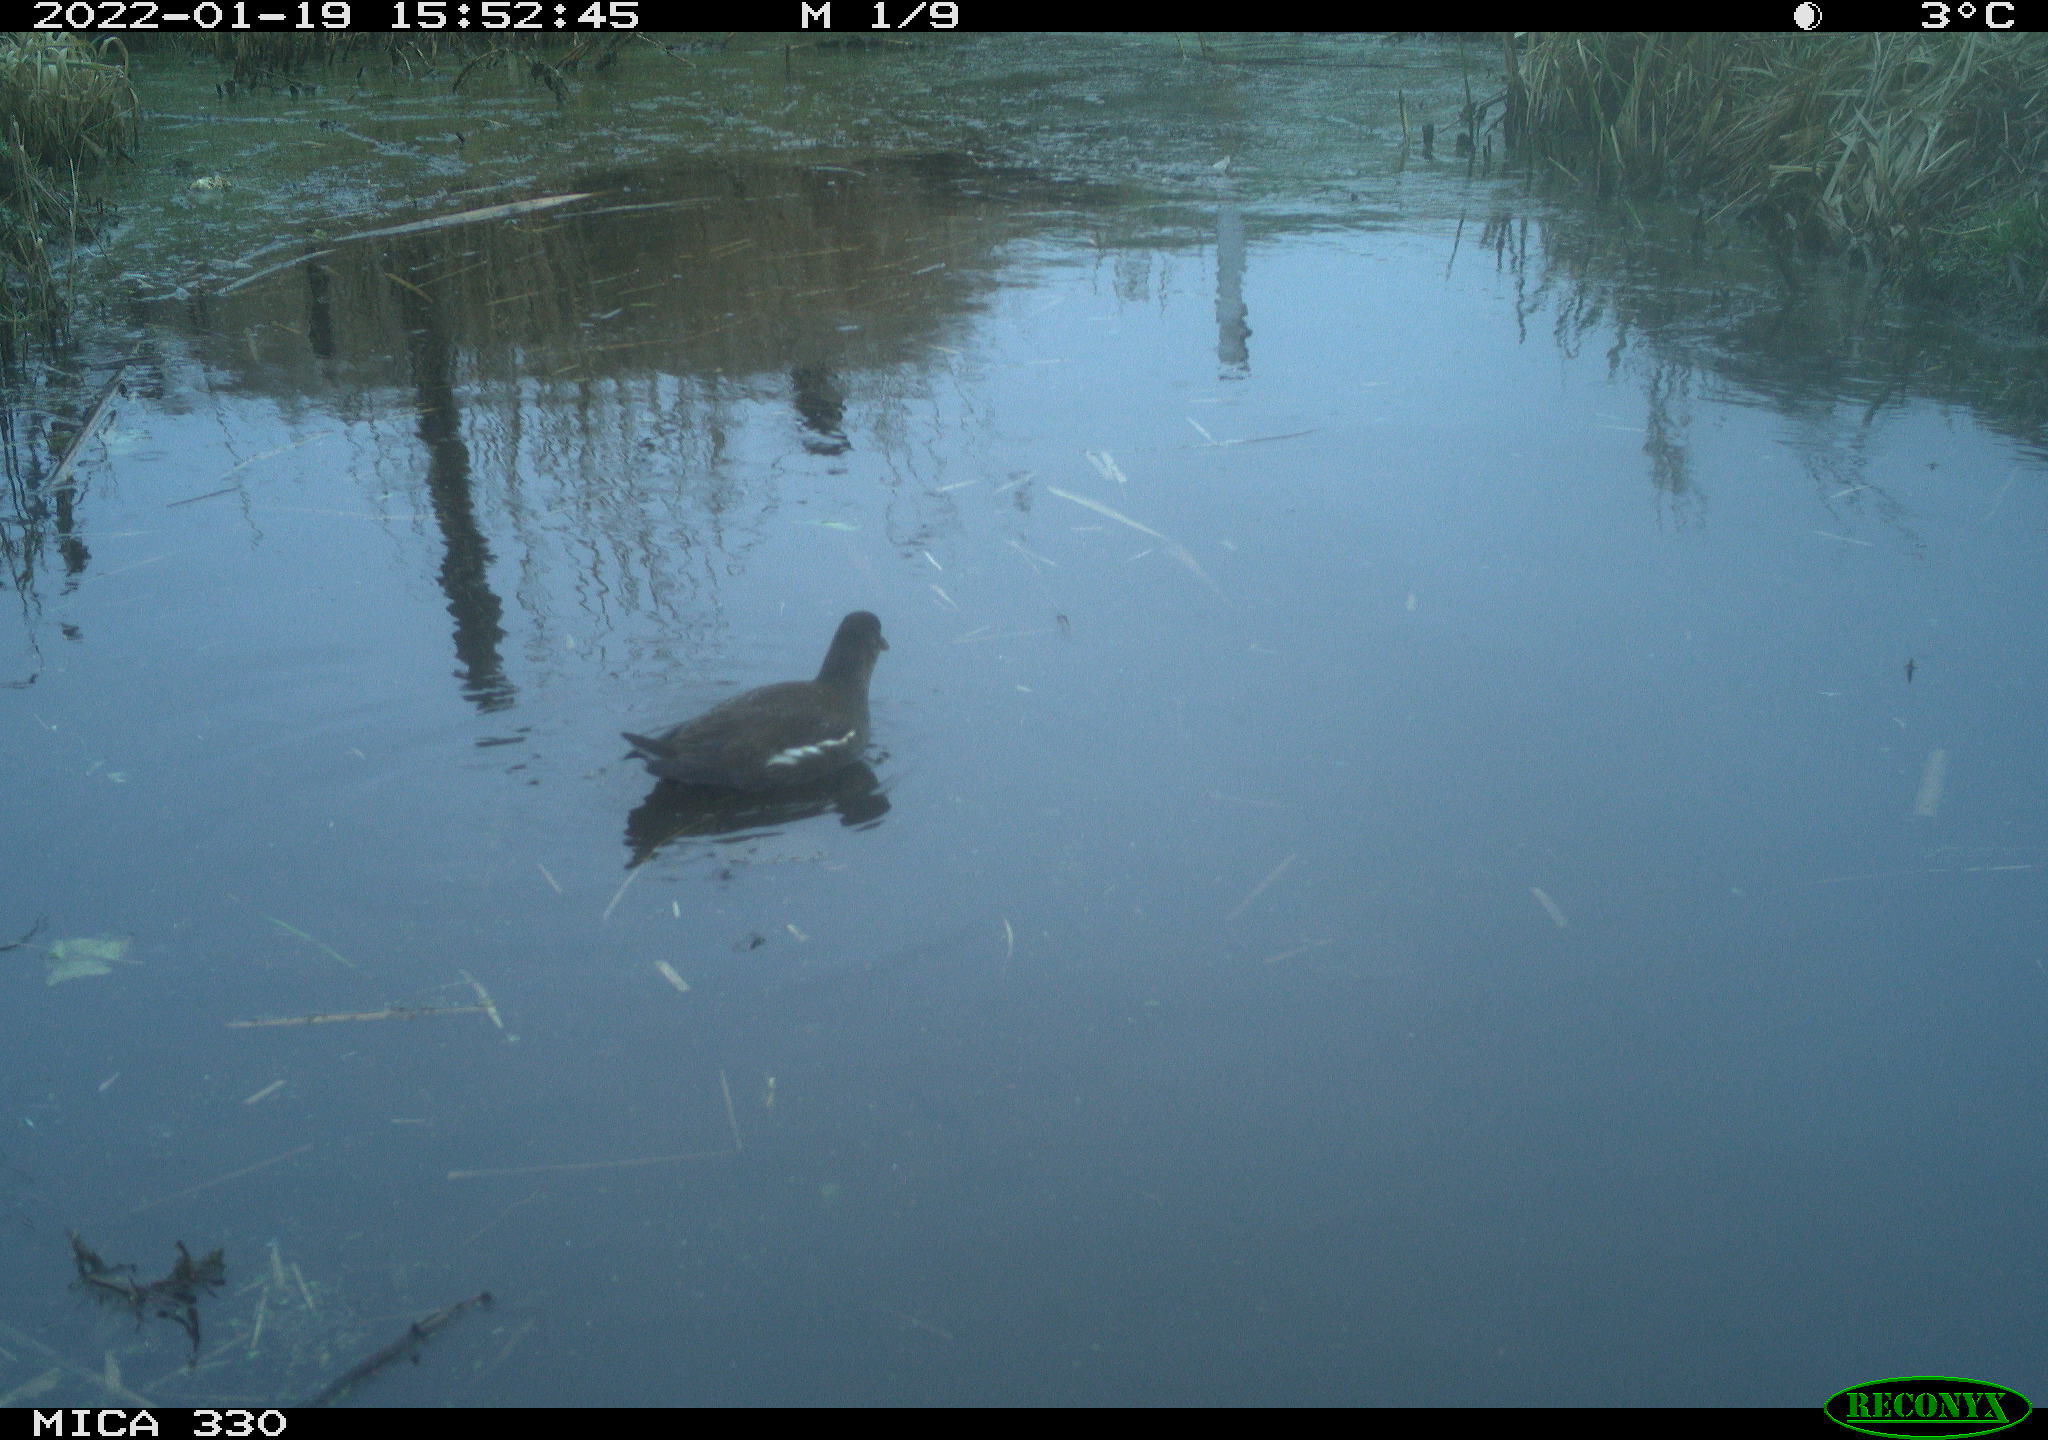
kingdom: Animalia
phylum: Chordata
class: Aves
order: Gruiformes
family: Rallidae
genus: Gallinula
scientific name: Gallinula chloropus
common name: Common moorhen
